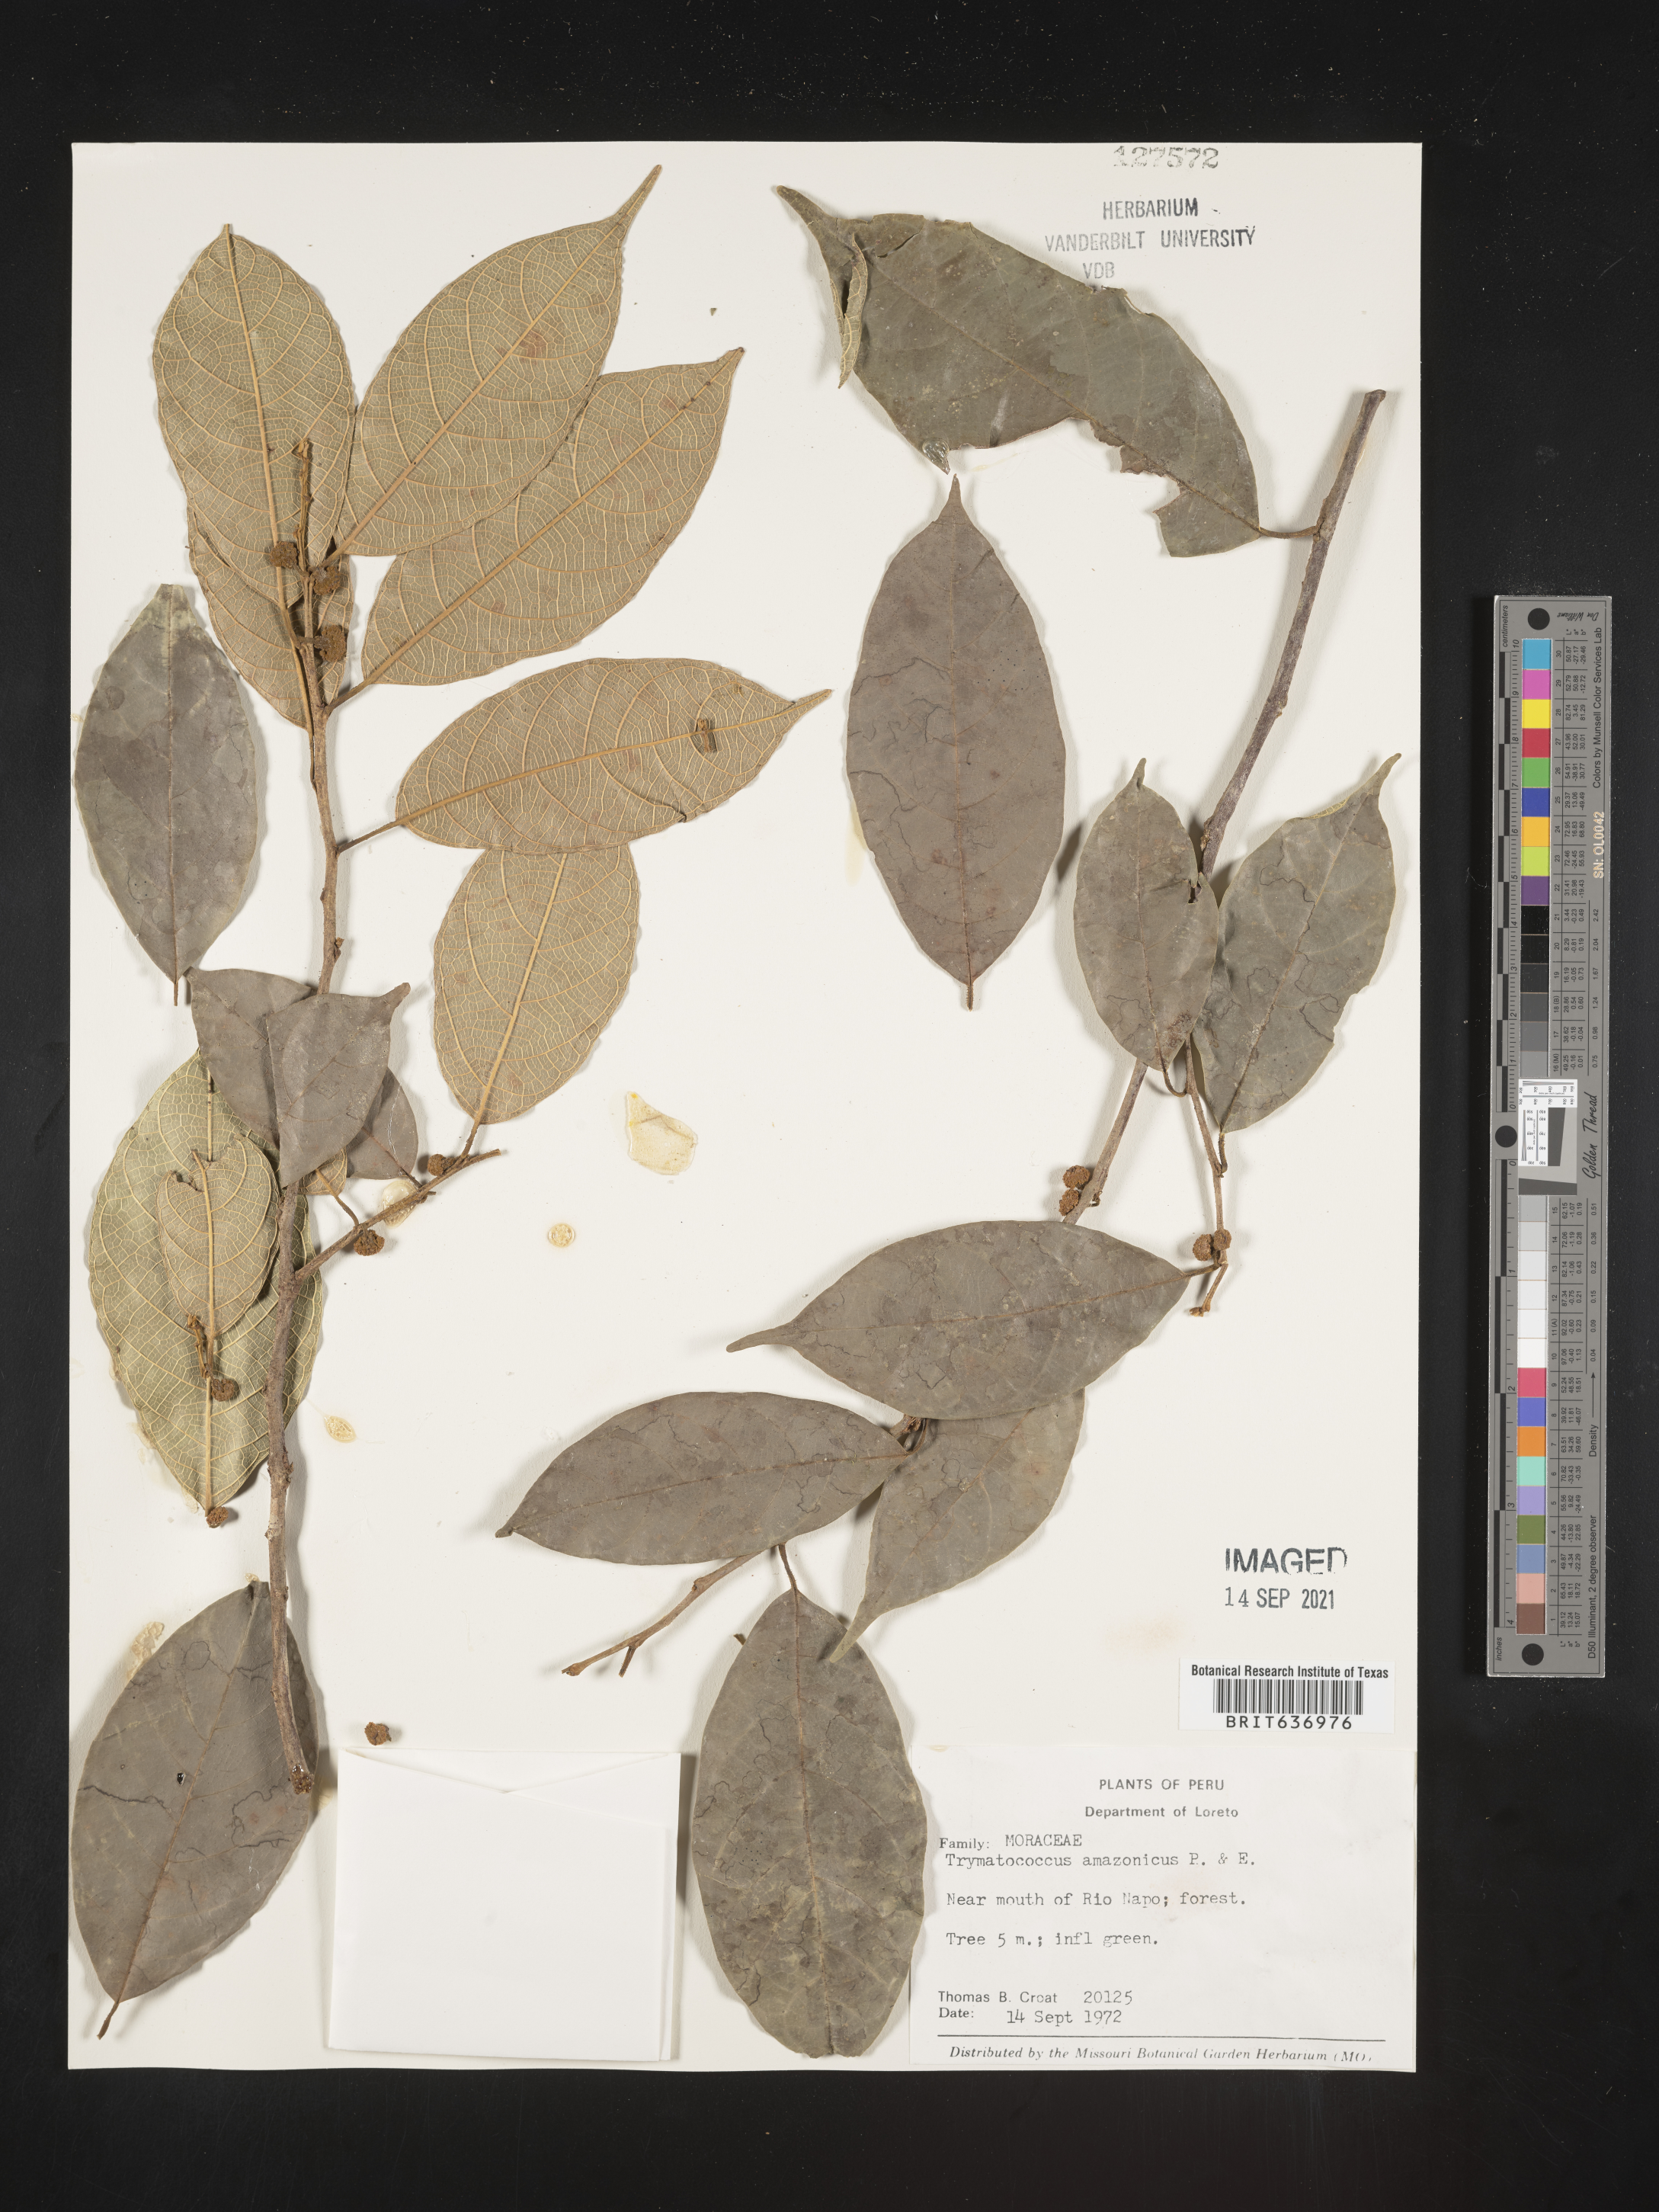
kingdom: Plantae
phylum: Tracheophyta
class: Magnoliopsida
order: Rosales
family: Moraceae
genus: Brosimum
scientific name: Brosimum
